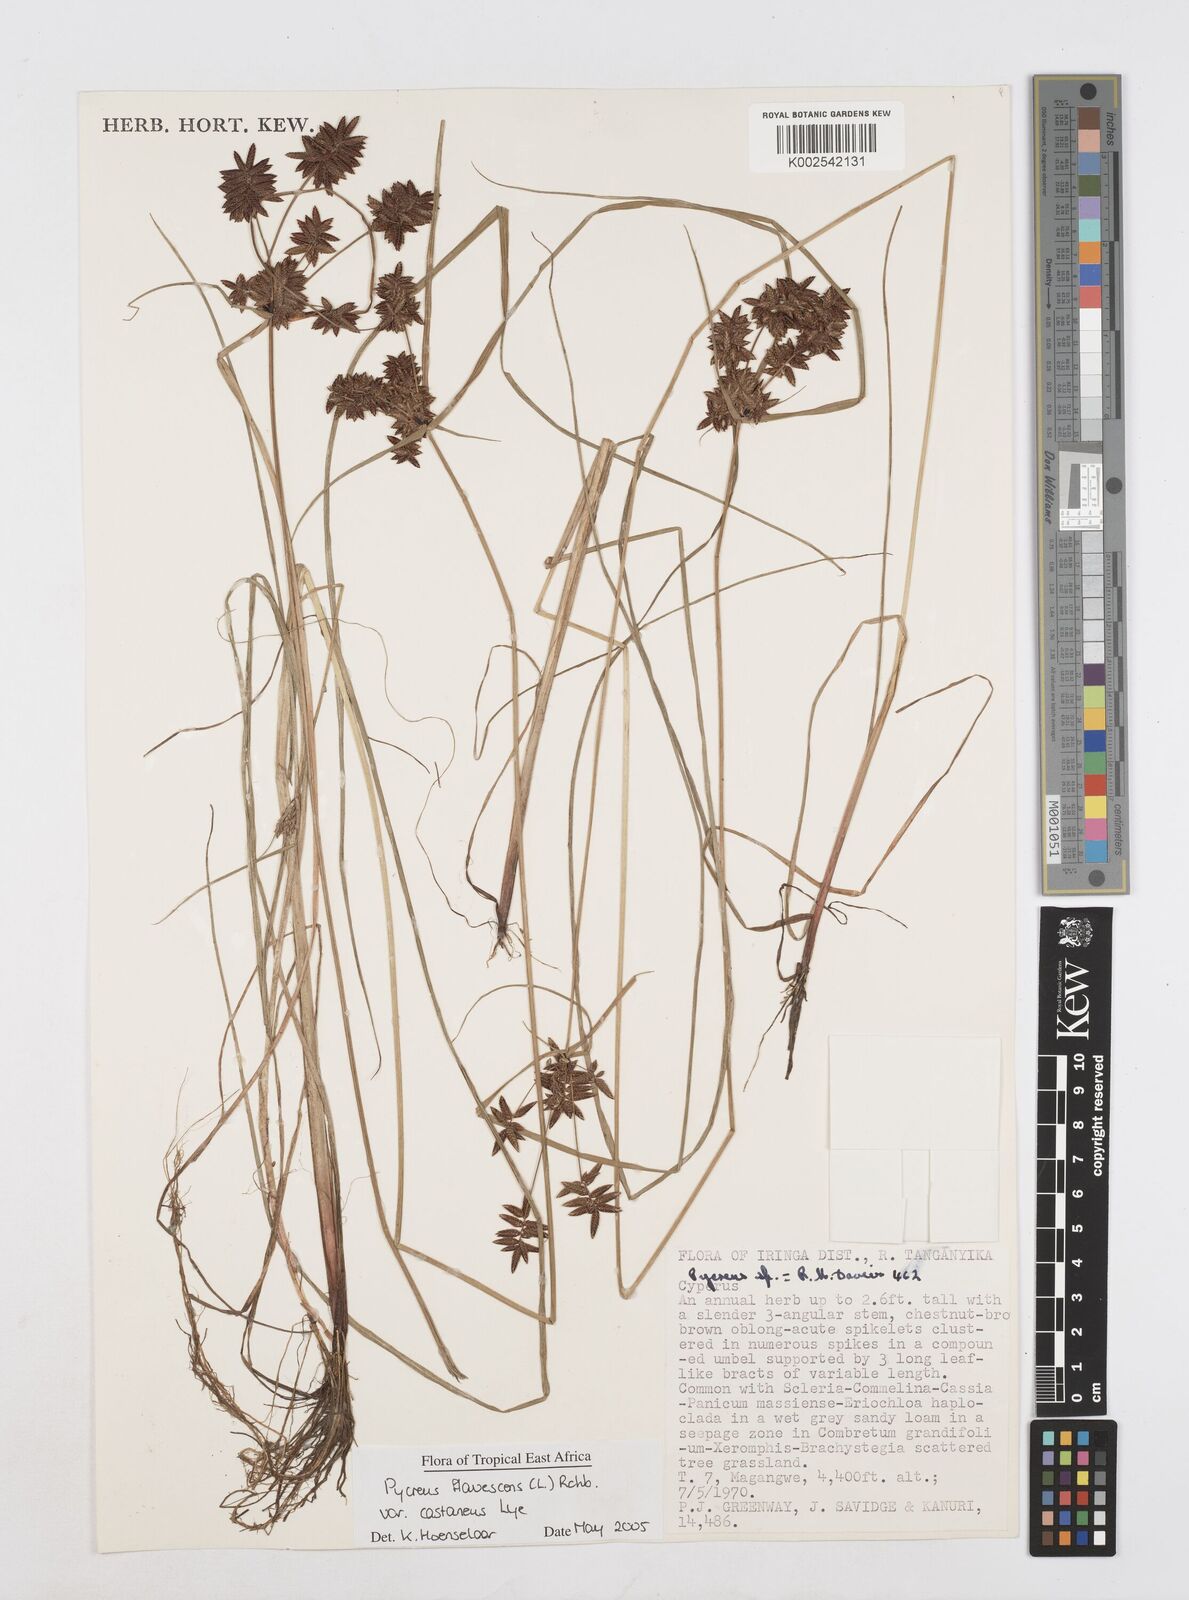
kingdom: Plantae
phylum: Tracheophyta
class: Liliopsida
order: Poales
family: Cyperaceae
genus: Cyperus
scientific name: Cyperus flavescens
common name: Yellow galingale
